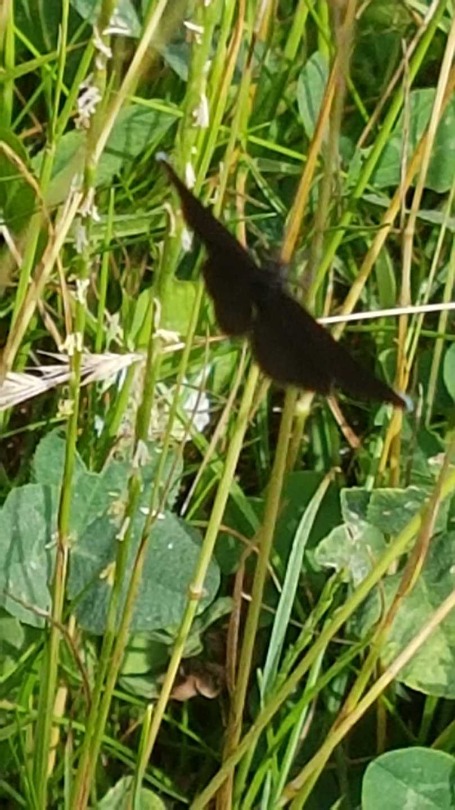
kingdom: Animalia
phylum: Arthropoda
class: Insecta
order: Lepidoptera
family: Geometridae
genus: Odezia
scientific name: Odezia atrata
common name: Sort måler
